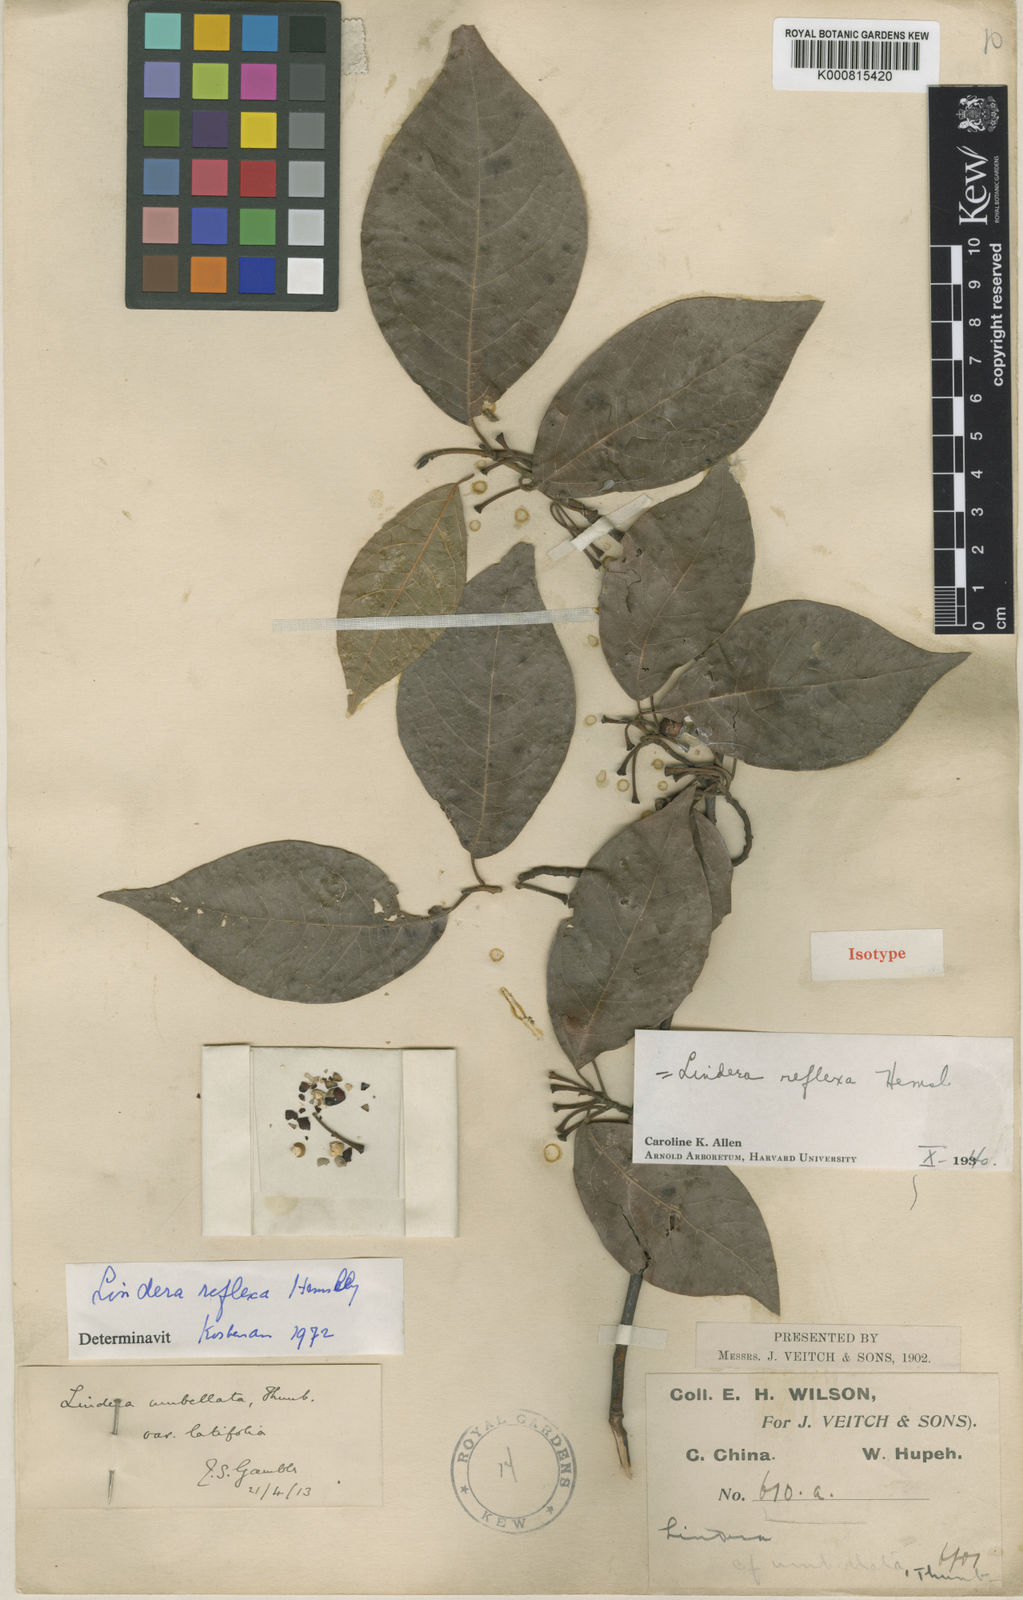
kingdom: Plantae
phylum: Tracheophyta
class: Magnoliopsida
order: Laurales
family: Lauraceae
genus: Lindera
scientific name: Lindera reflexa
